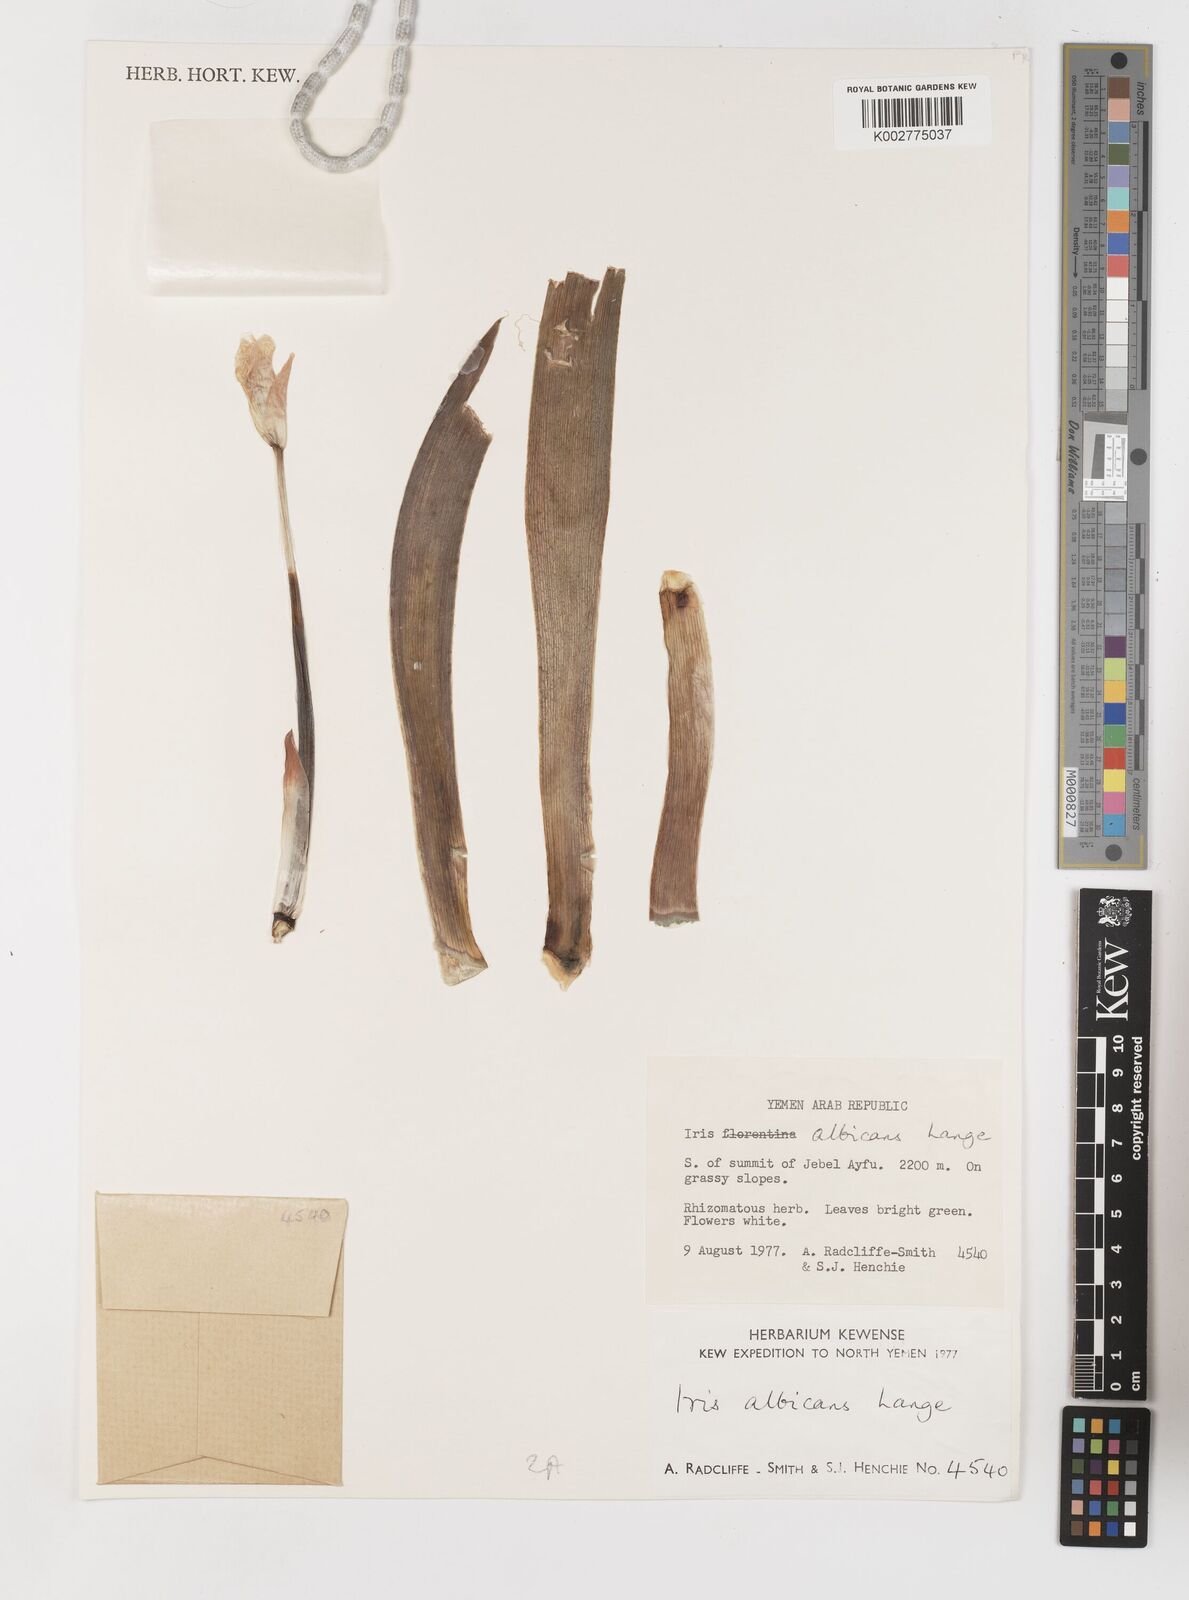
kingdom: Plantae
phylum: Tracheophyta
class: Liliopsida
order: Asparagales
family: Iridaceae
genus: Iris
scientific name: Iris florentina
